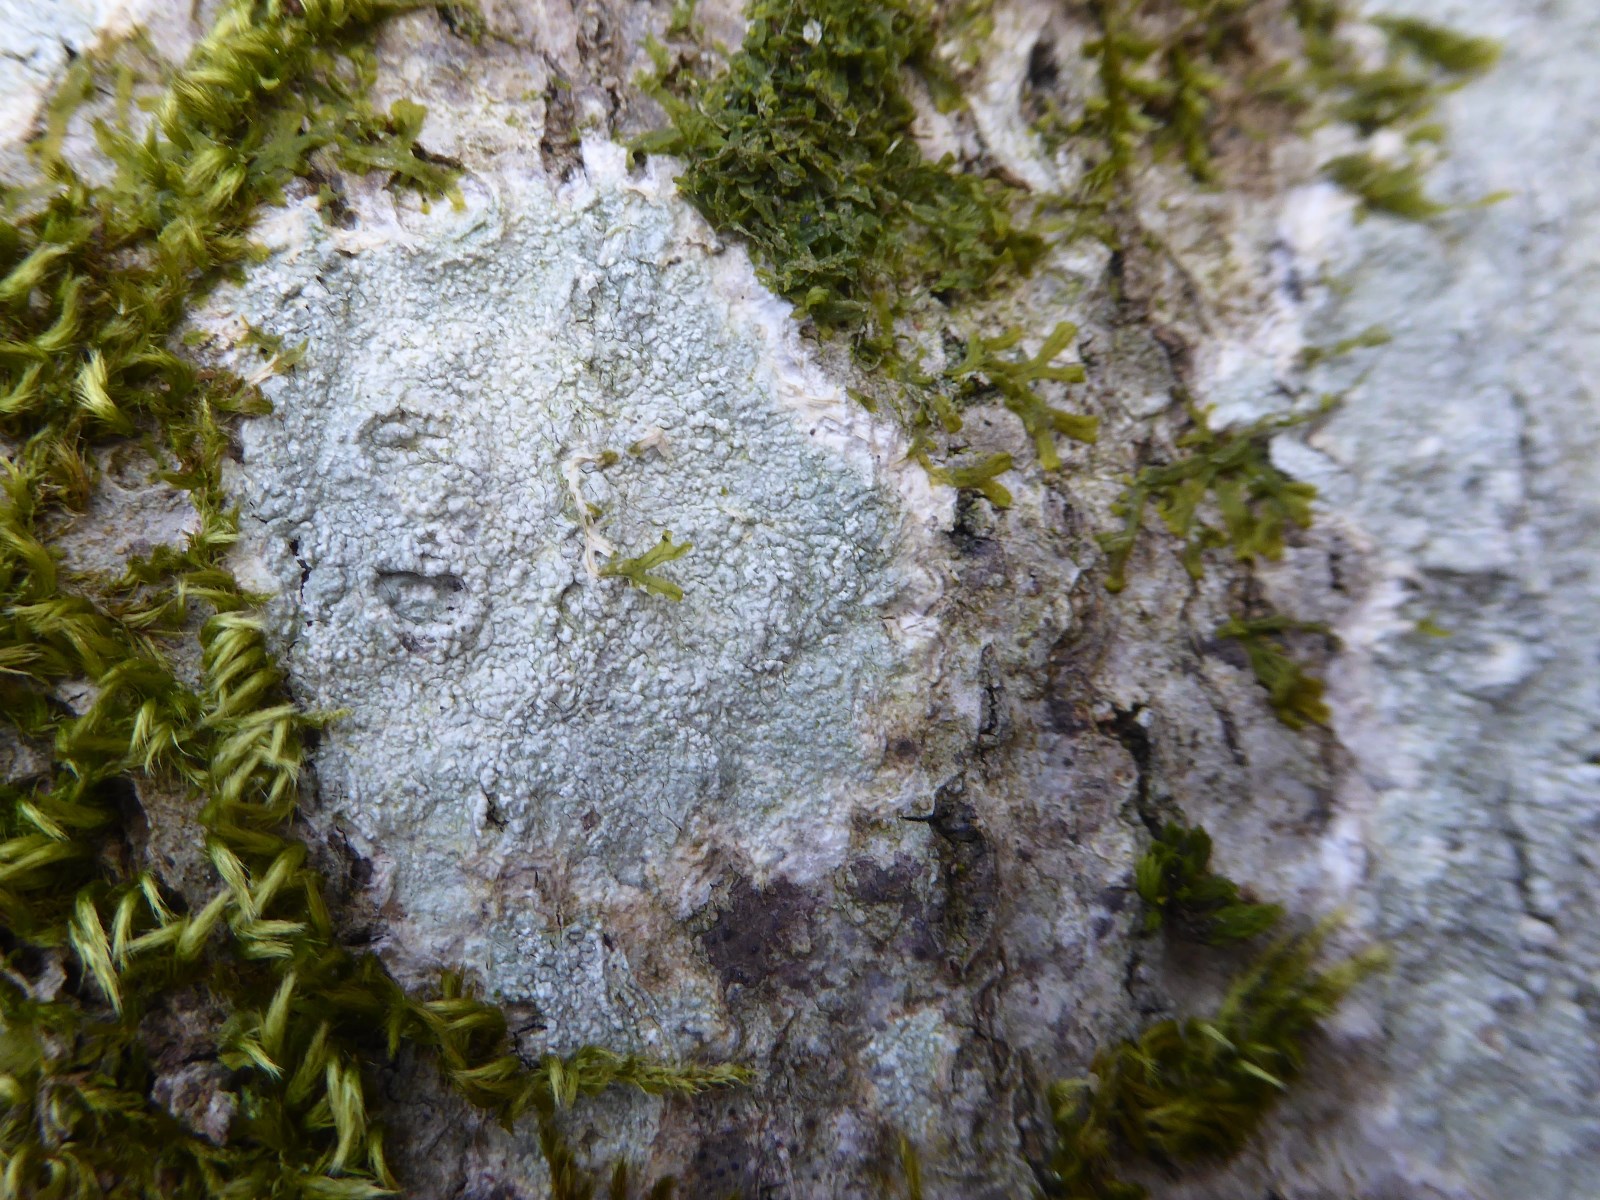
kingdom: Fungi
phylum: Ascomycota
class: Lecanoromycetes
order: Lecanorales
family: Haematommataceae
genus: Haematomma
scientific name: Haematomma ochroleucum
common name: gul trådkantlav
